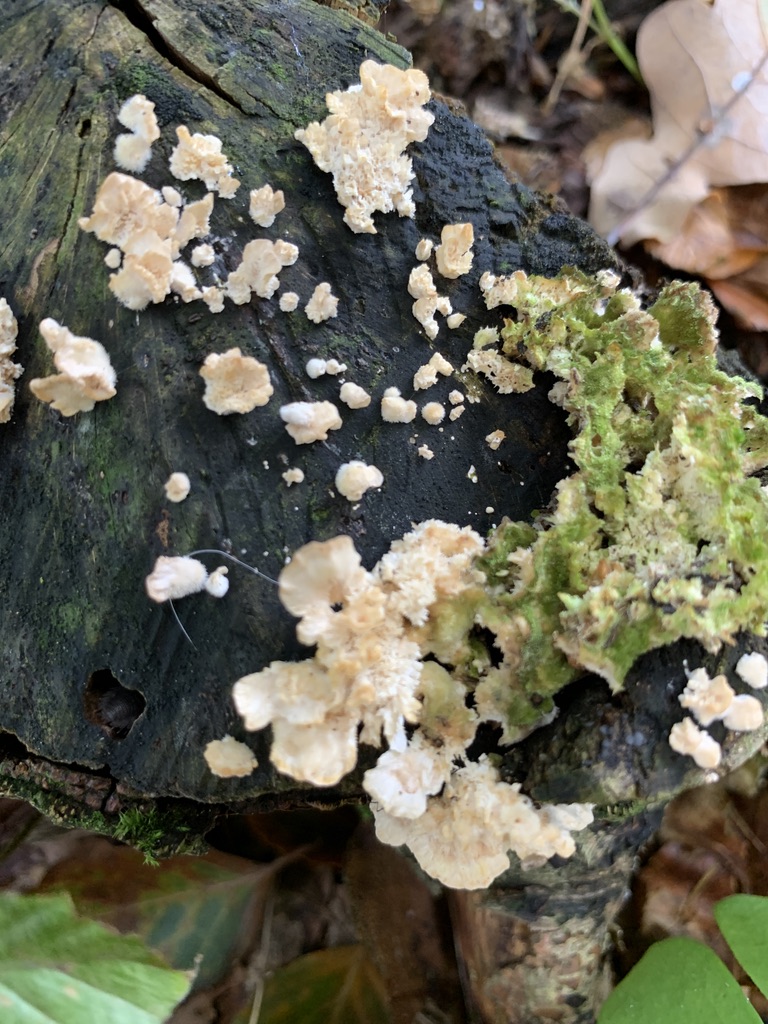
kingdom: Fungi
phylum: Basidiomycota
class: Agaricomycetes
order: Polyporales
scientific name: Polyporales
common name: poresvampordenen
